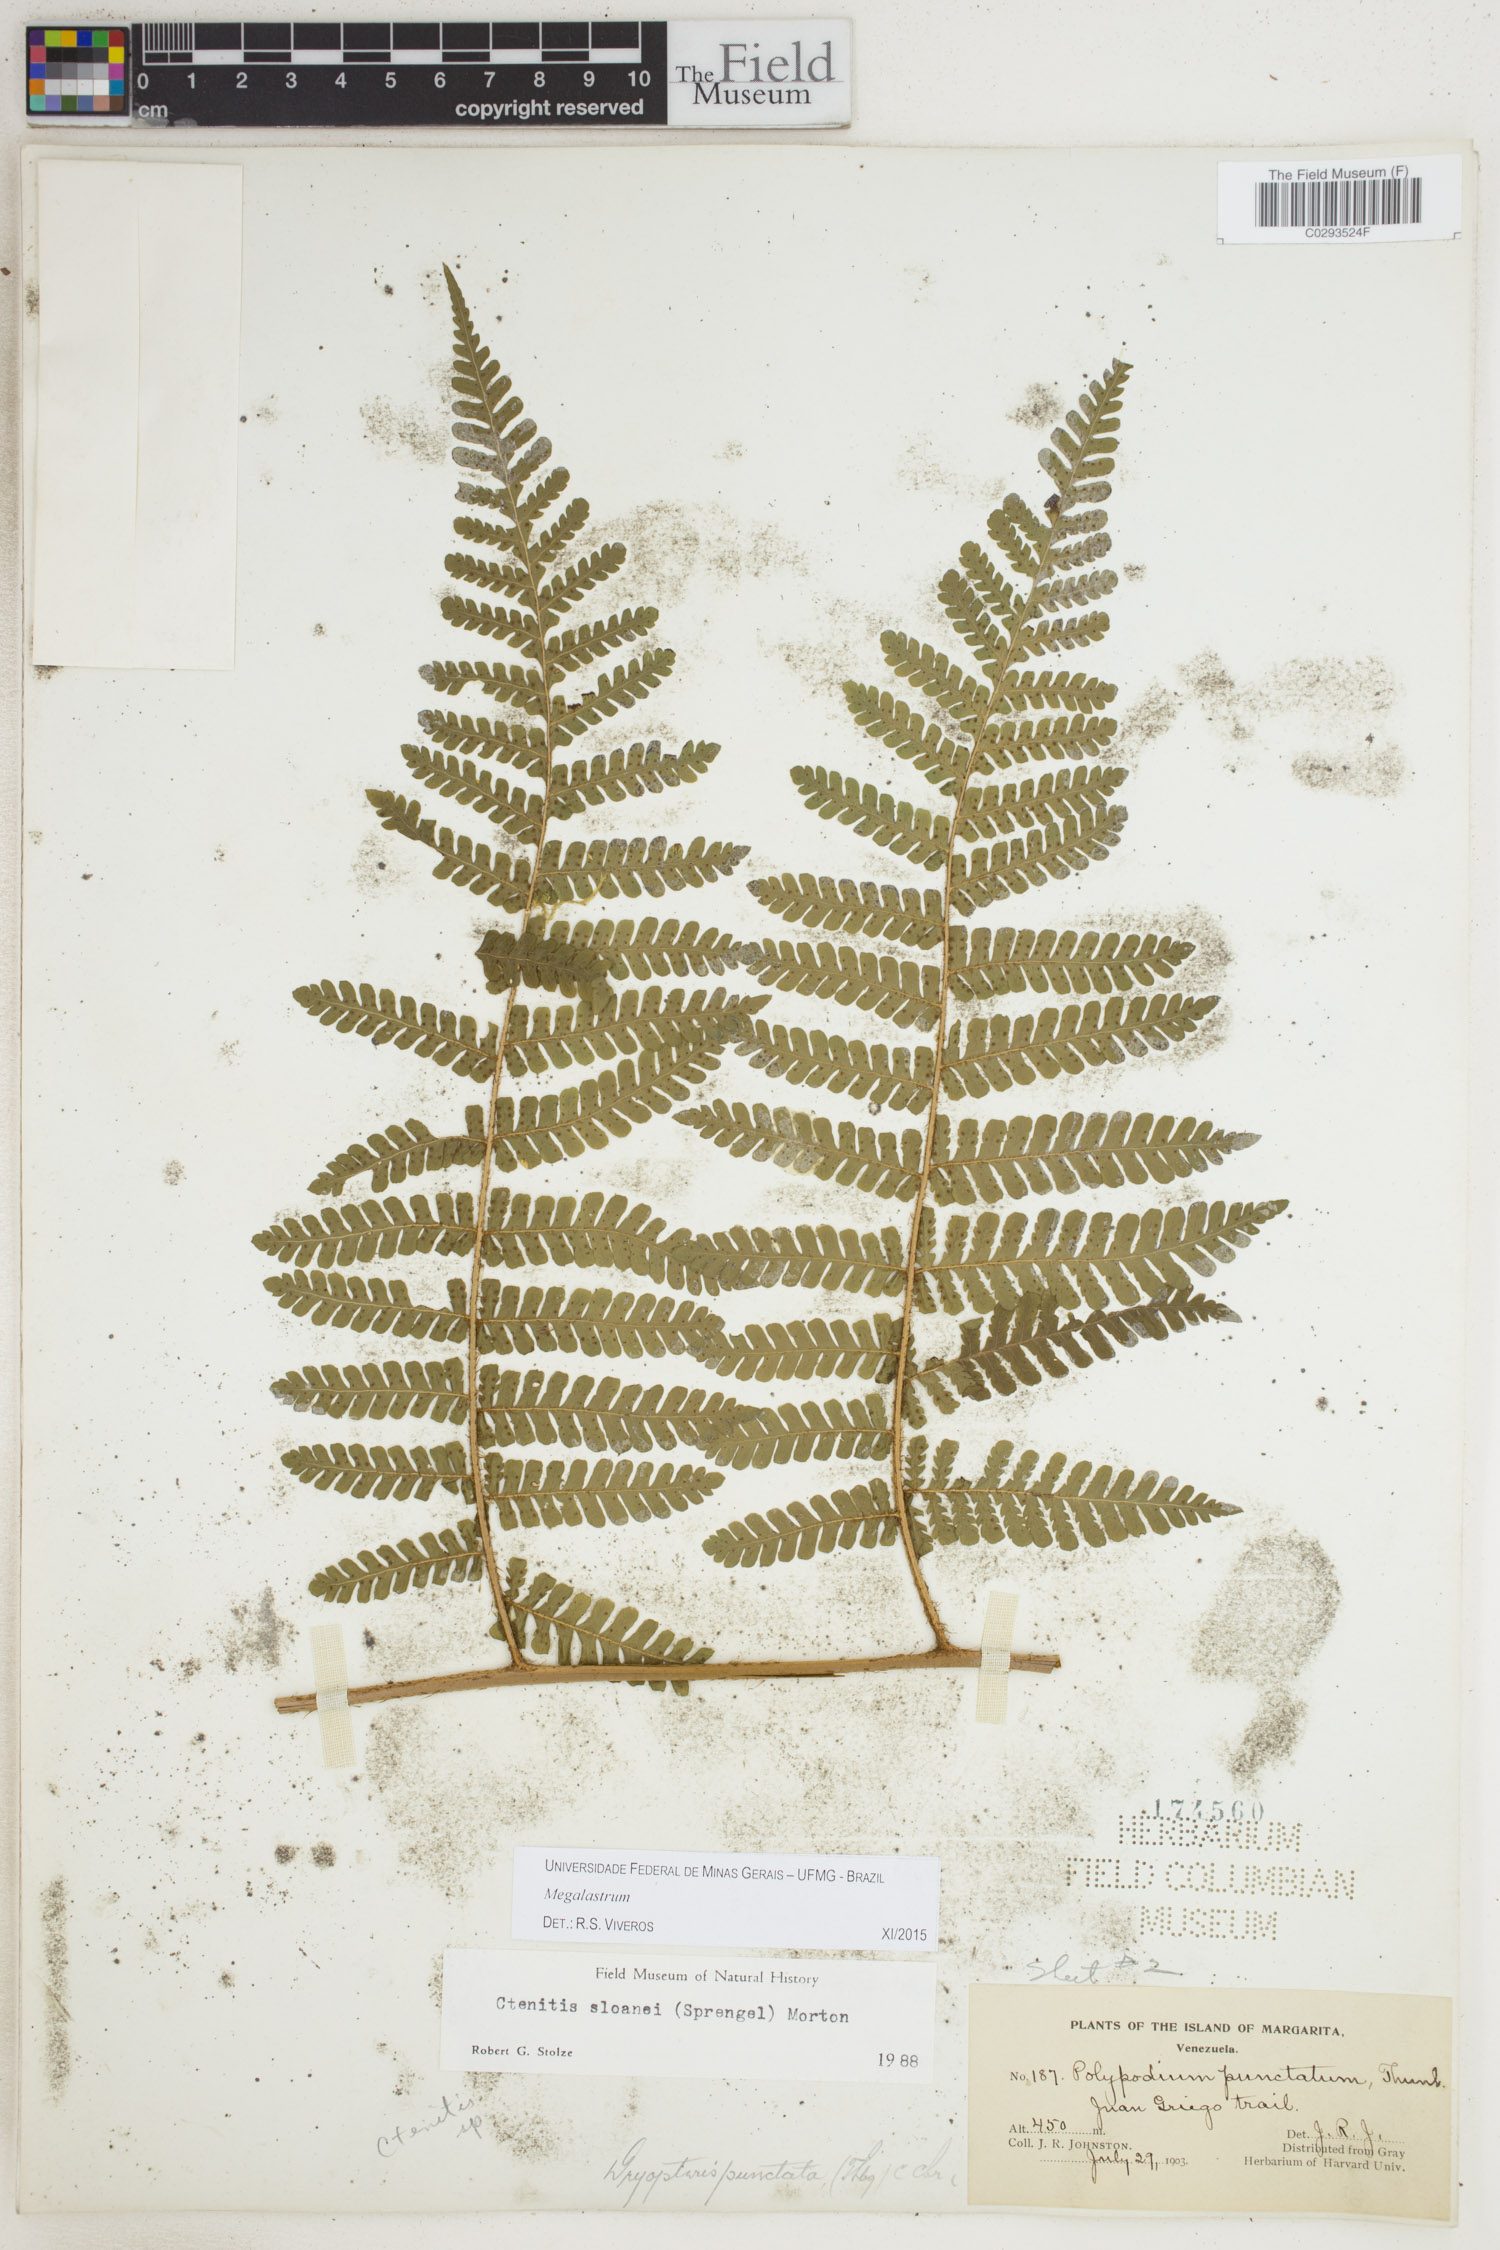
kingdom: Plantae
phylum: Tracheophyta
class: Polypodiopsida
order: Polypodiales
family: Dryopteridaceae
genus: Megalastrum
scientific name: Megalastrum
